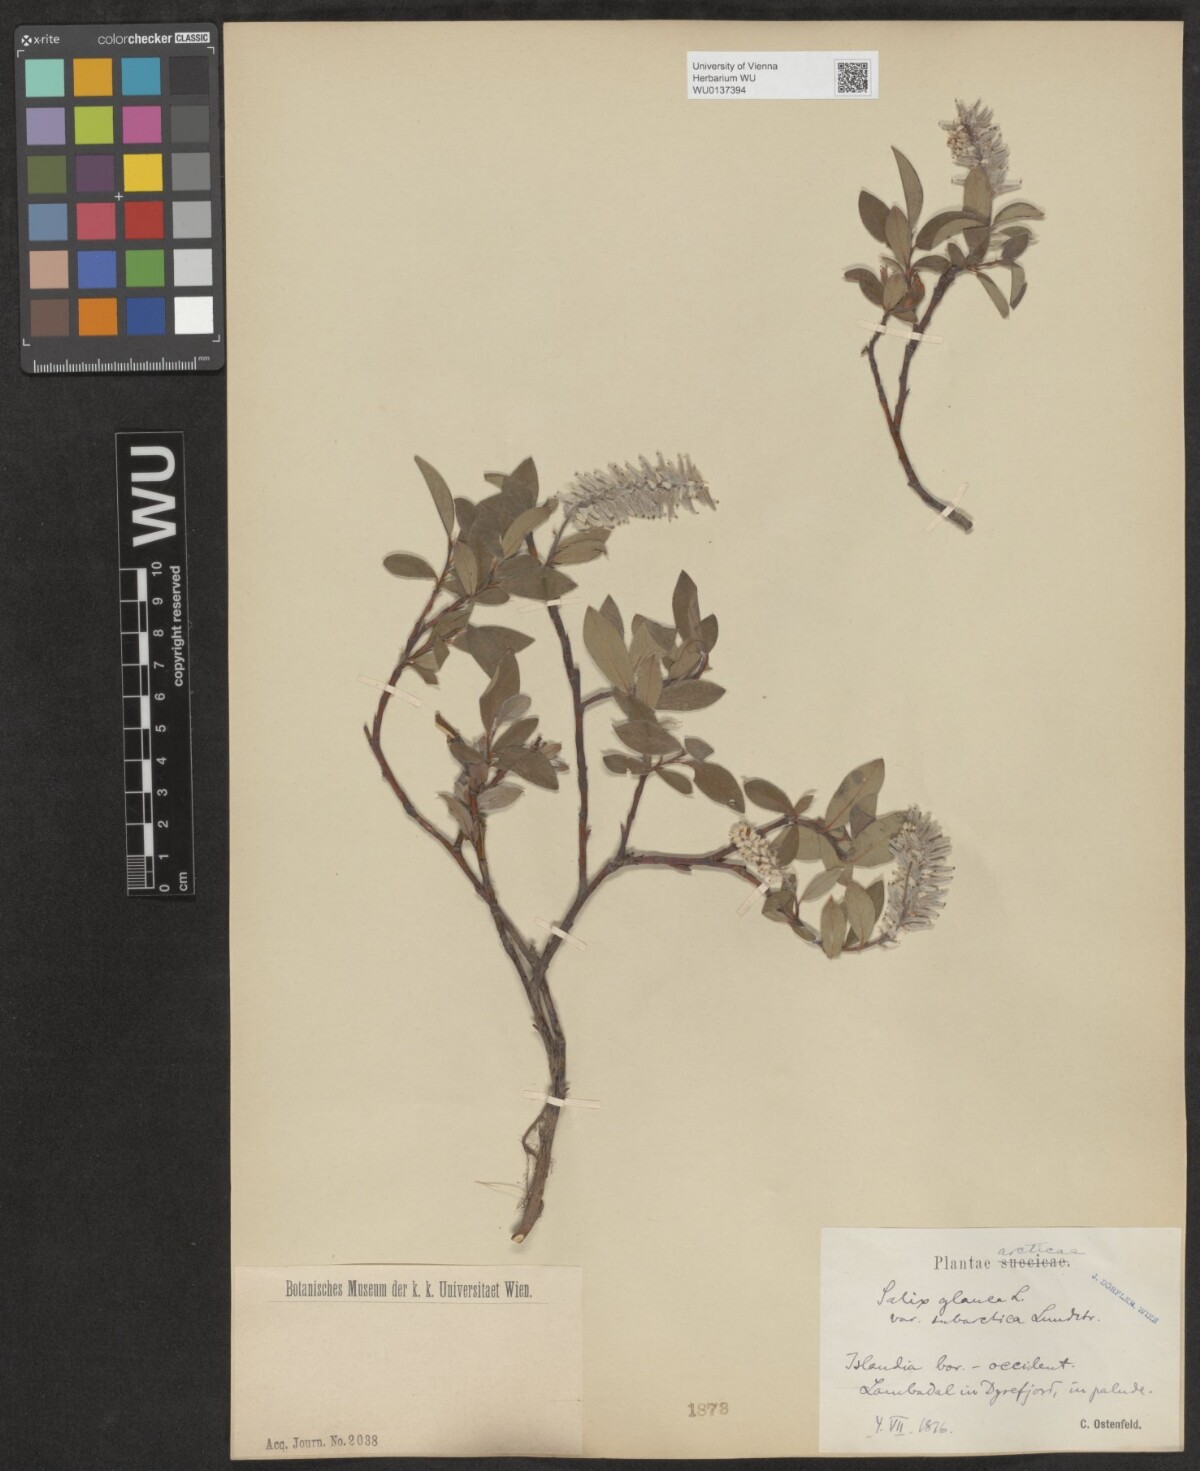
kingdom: Plantae
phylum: Tracheophyta
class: Magnoliopsida
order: Malpighiales
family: Salicaceae
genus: Salix
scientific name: Salix glauca
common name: Glaucous willow
